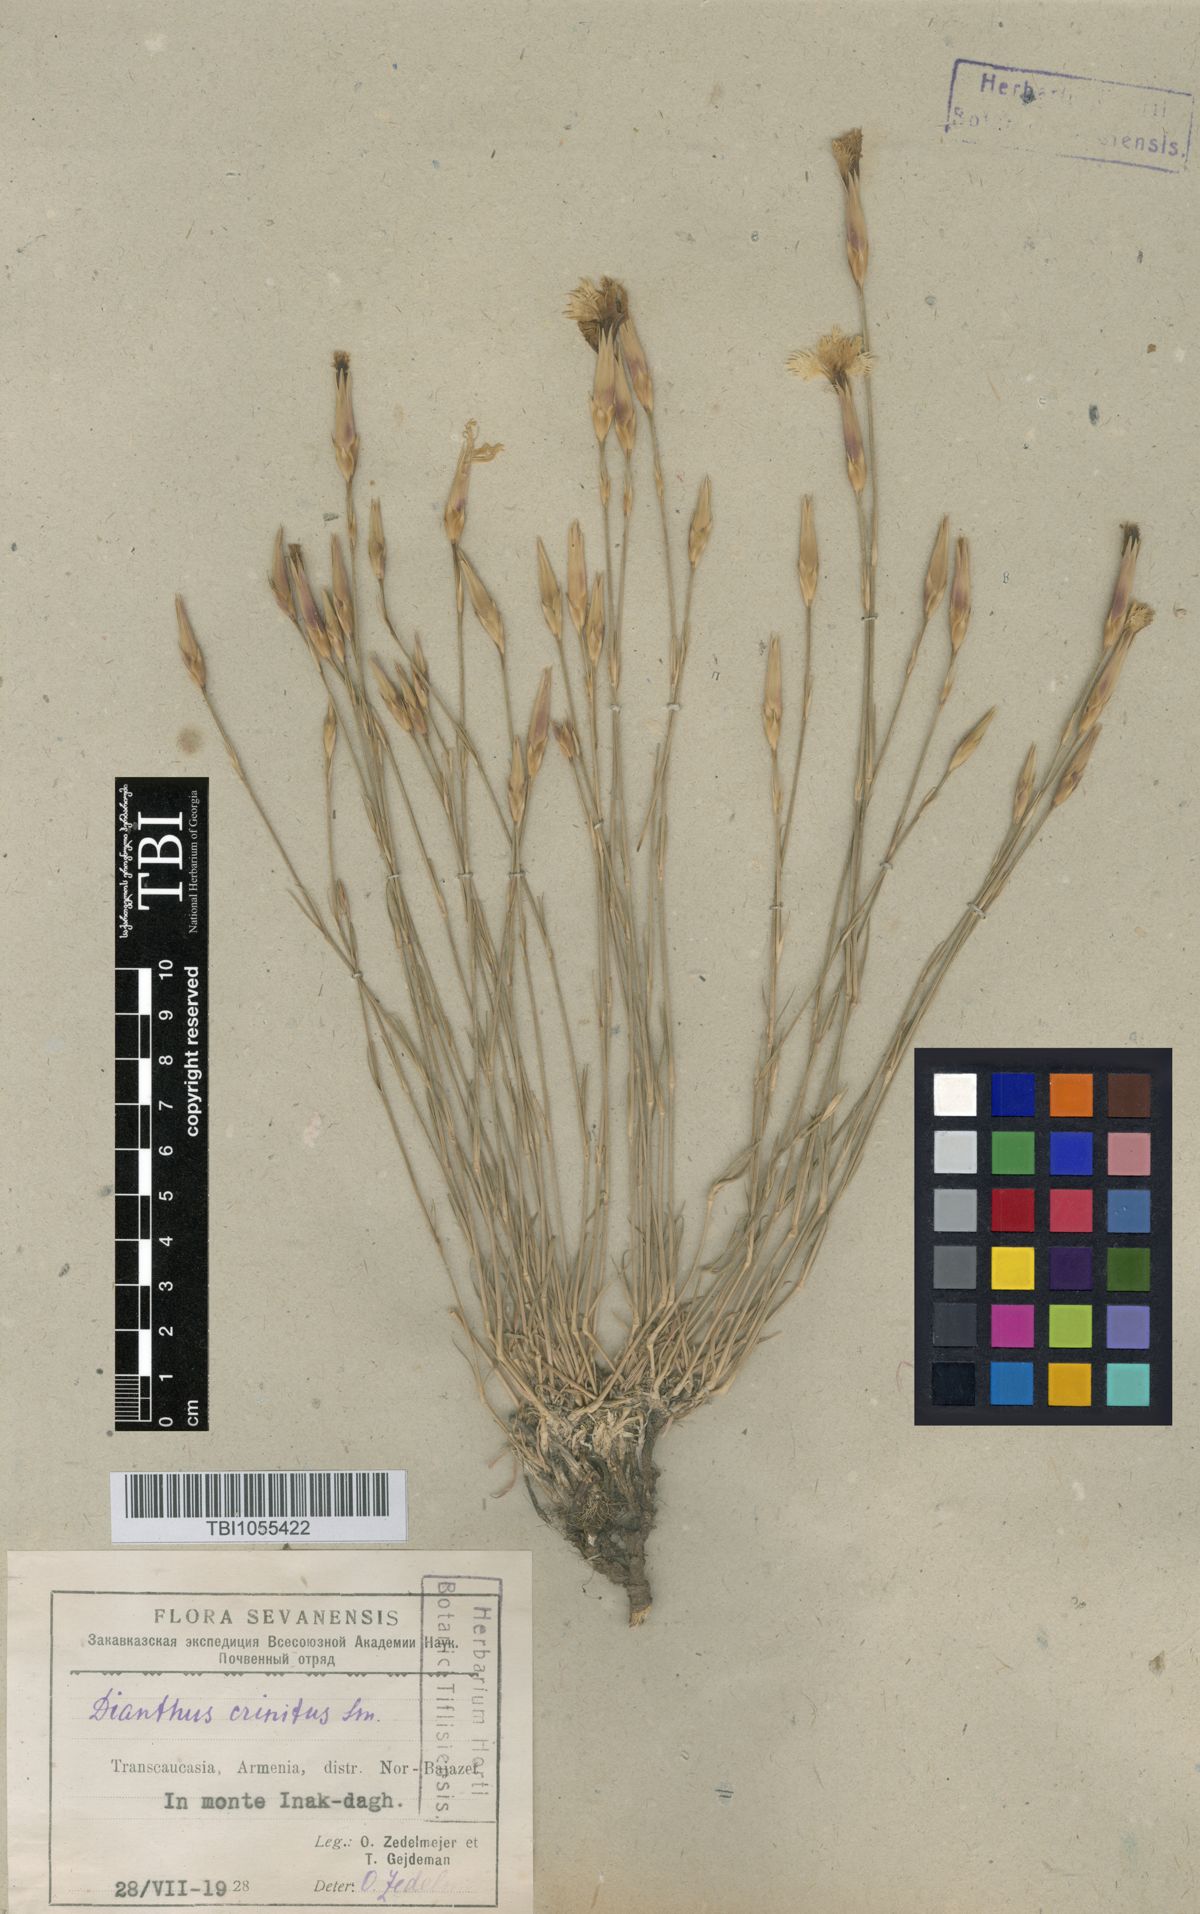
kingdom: Plantae
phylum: Tracheophyta
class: Magnoliopsida
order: Caryophyllales
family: Caryophyllaceae
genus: Dianthus
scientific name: Dianthus crinitus
